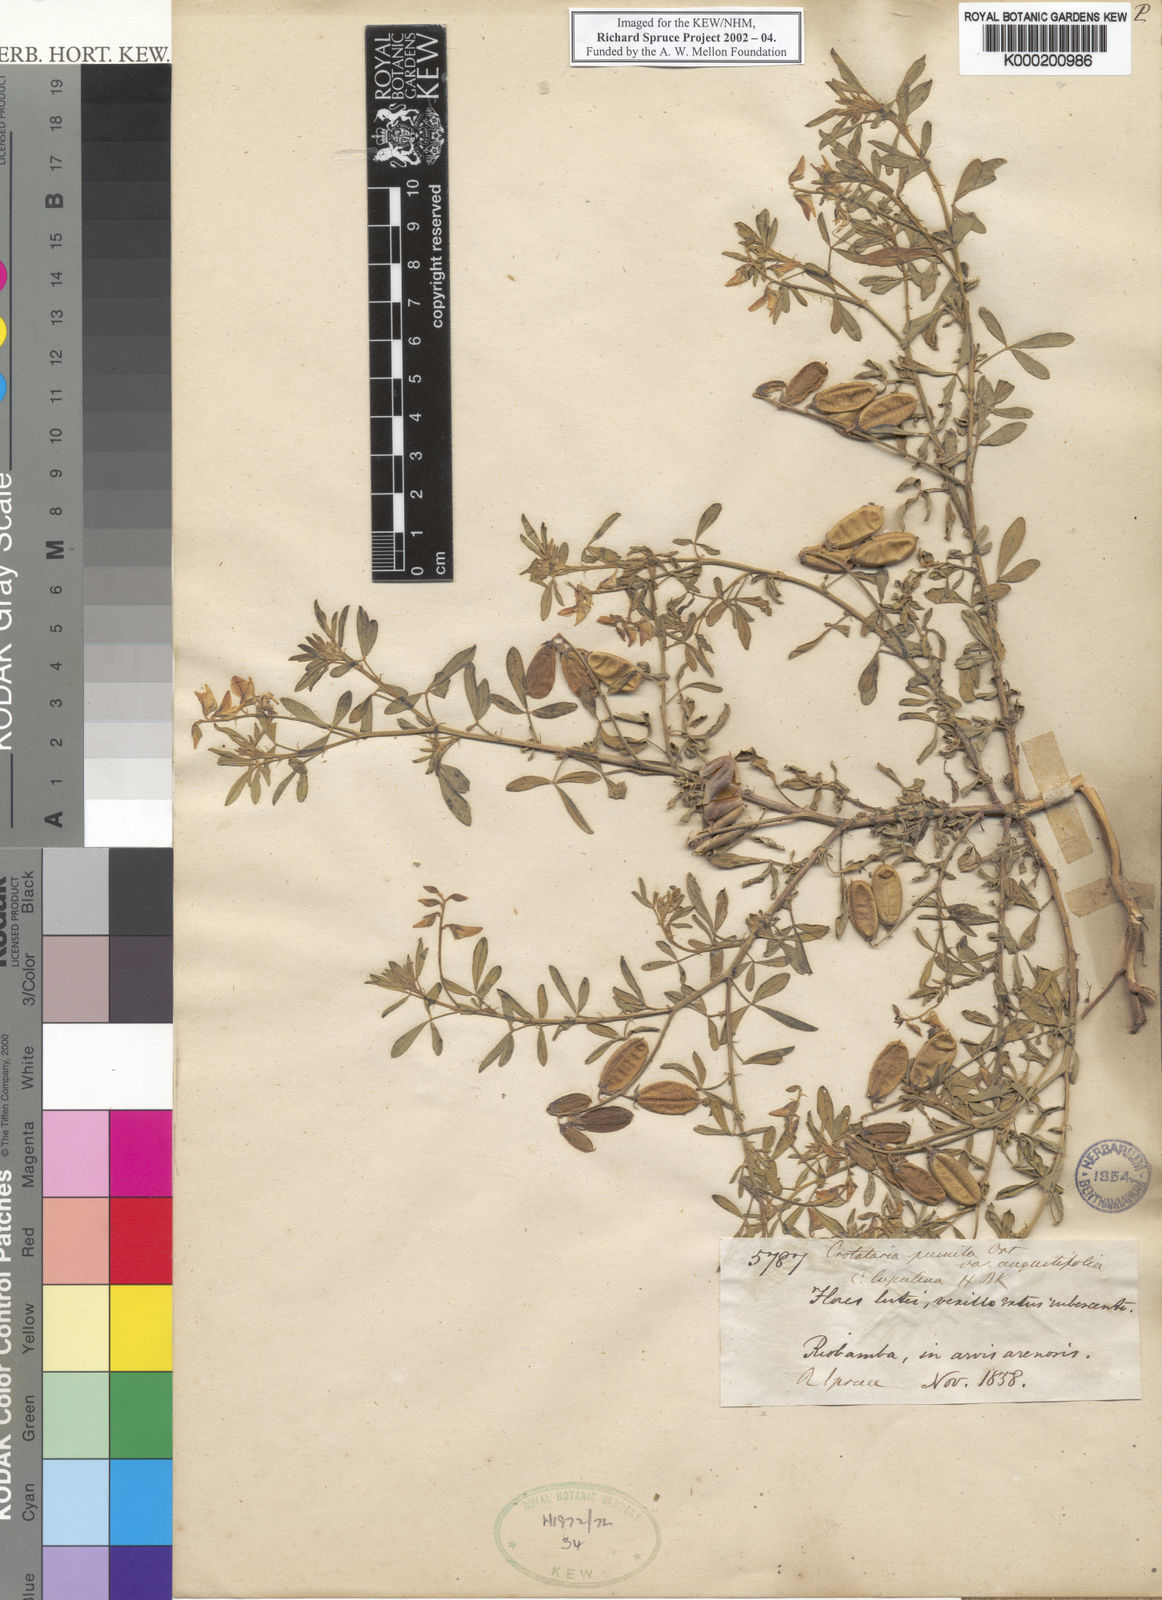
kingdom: Plantae
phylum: Tracheophyta
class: Magnoliopsida
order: Fabales
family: Fabaceae
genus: Crotalaria
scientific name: Crotalaria pumila
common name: Low rattlebox
